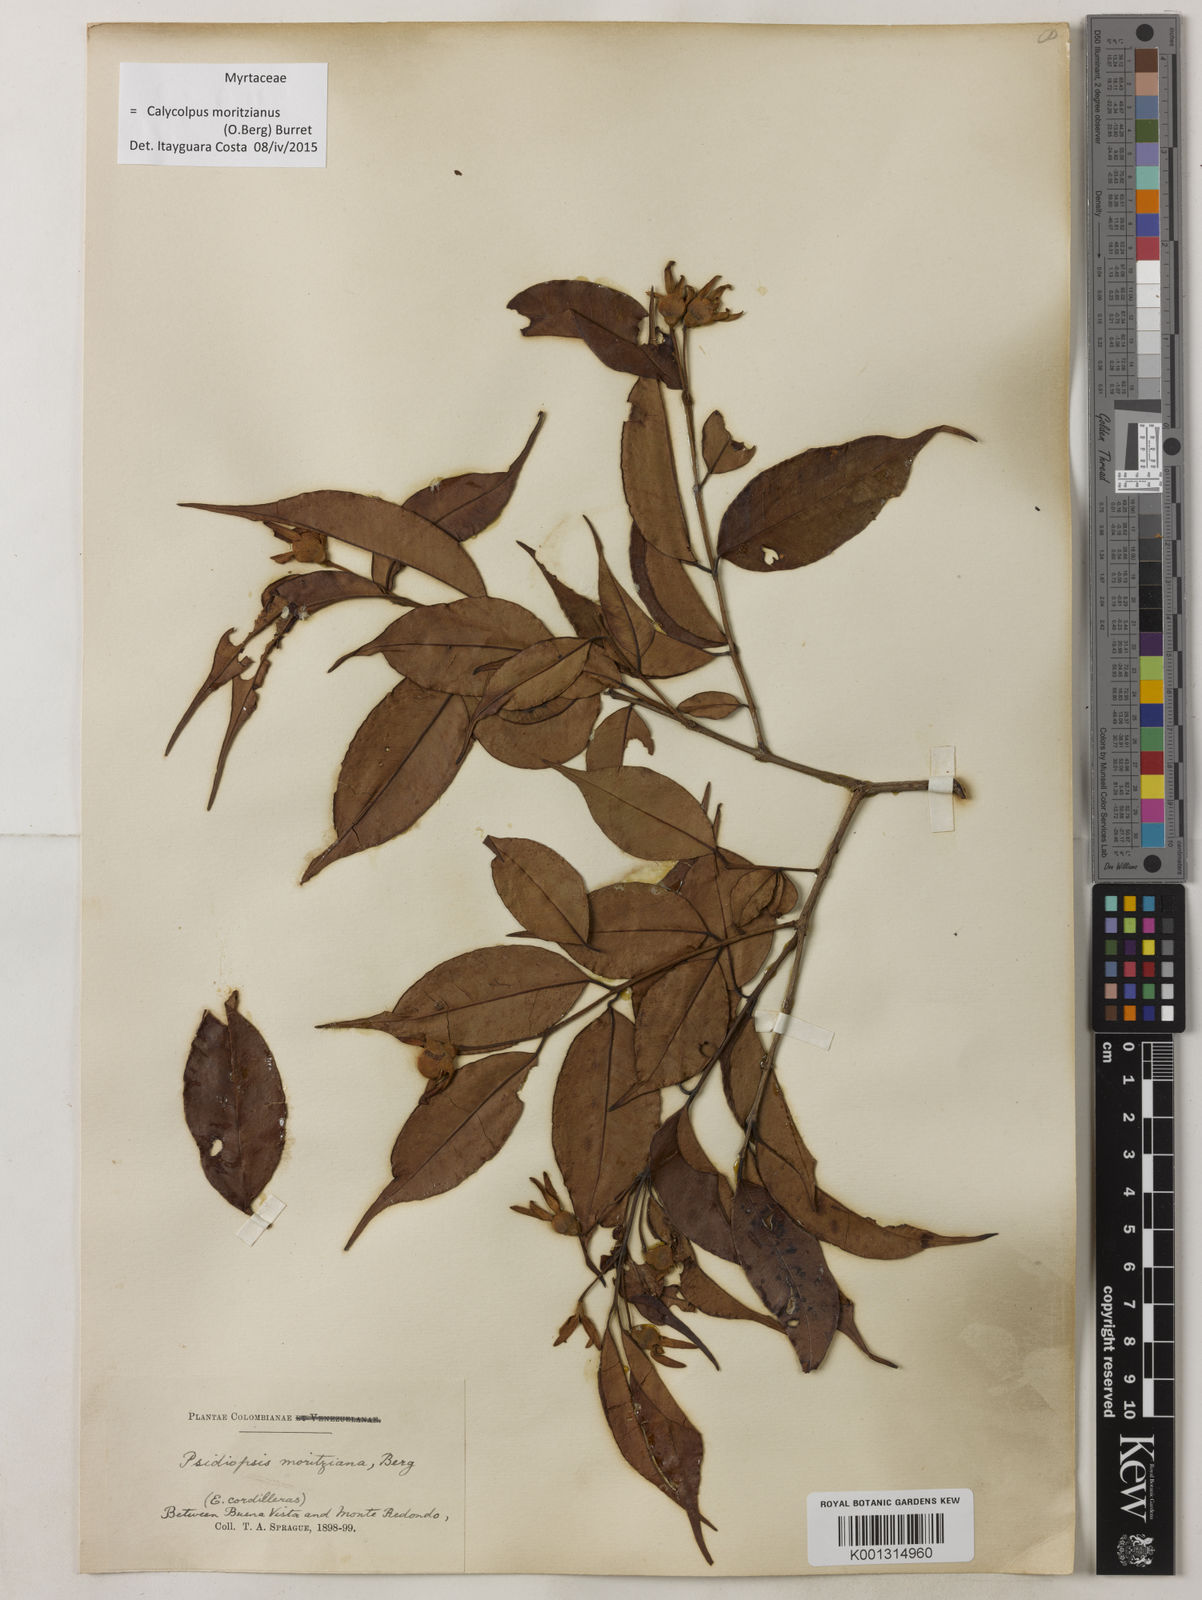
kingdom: Plantae
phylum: Tracheophyta
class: Magnoliopsida
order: Myrtales
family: Myrtaceae
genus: Calycolpus
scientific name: Calycolpus moritzianus
